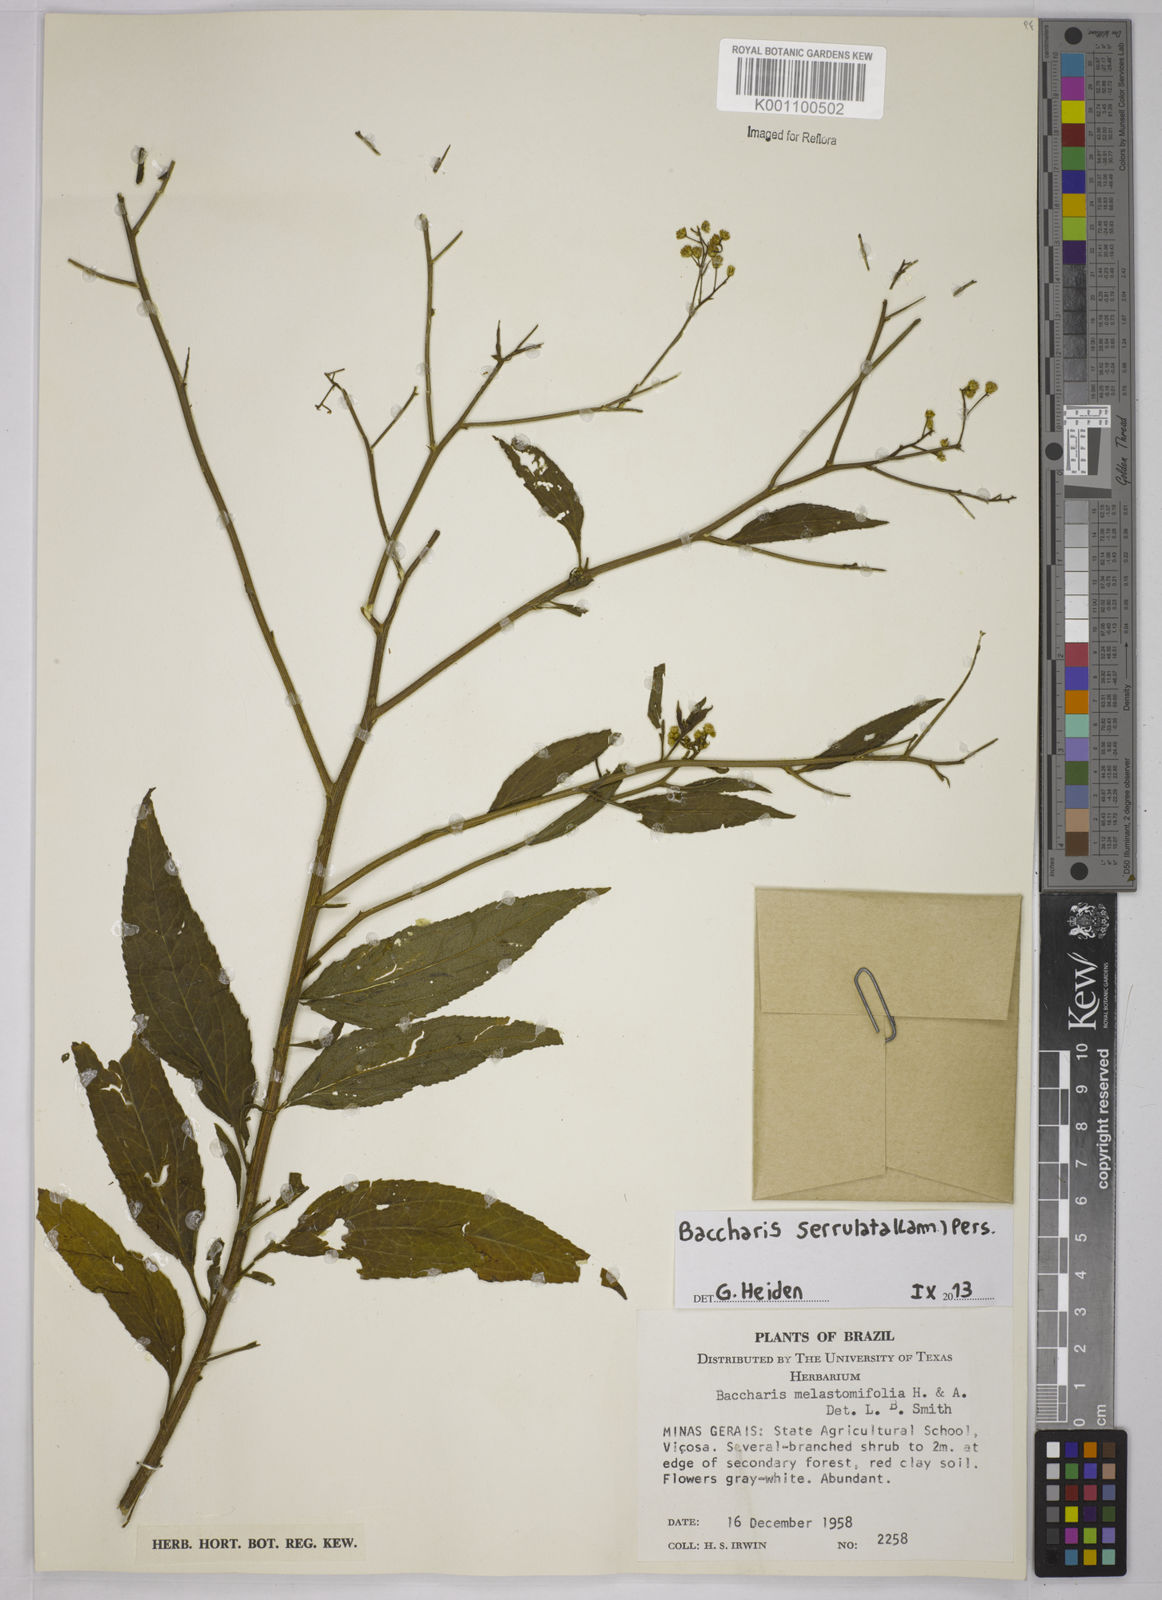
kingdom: Plantae
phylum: Tracheophyta
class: Magnoliopsida
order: Asterales
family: Asteraceae
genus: Baccharis
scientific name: Baccharis serrulata
